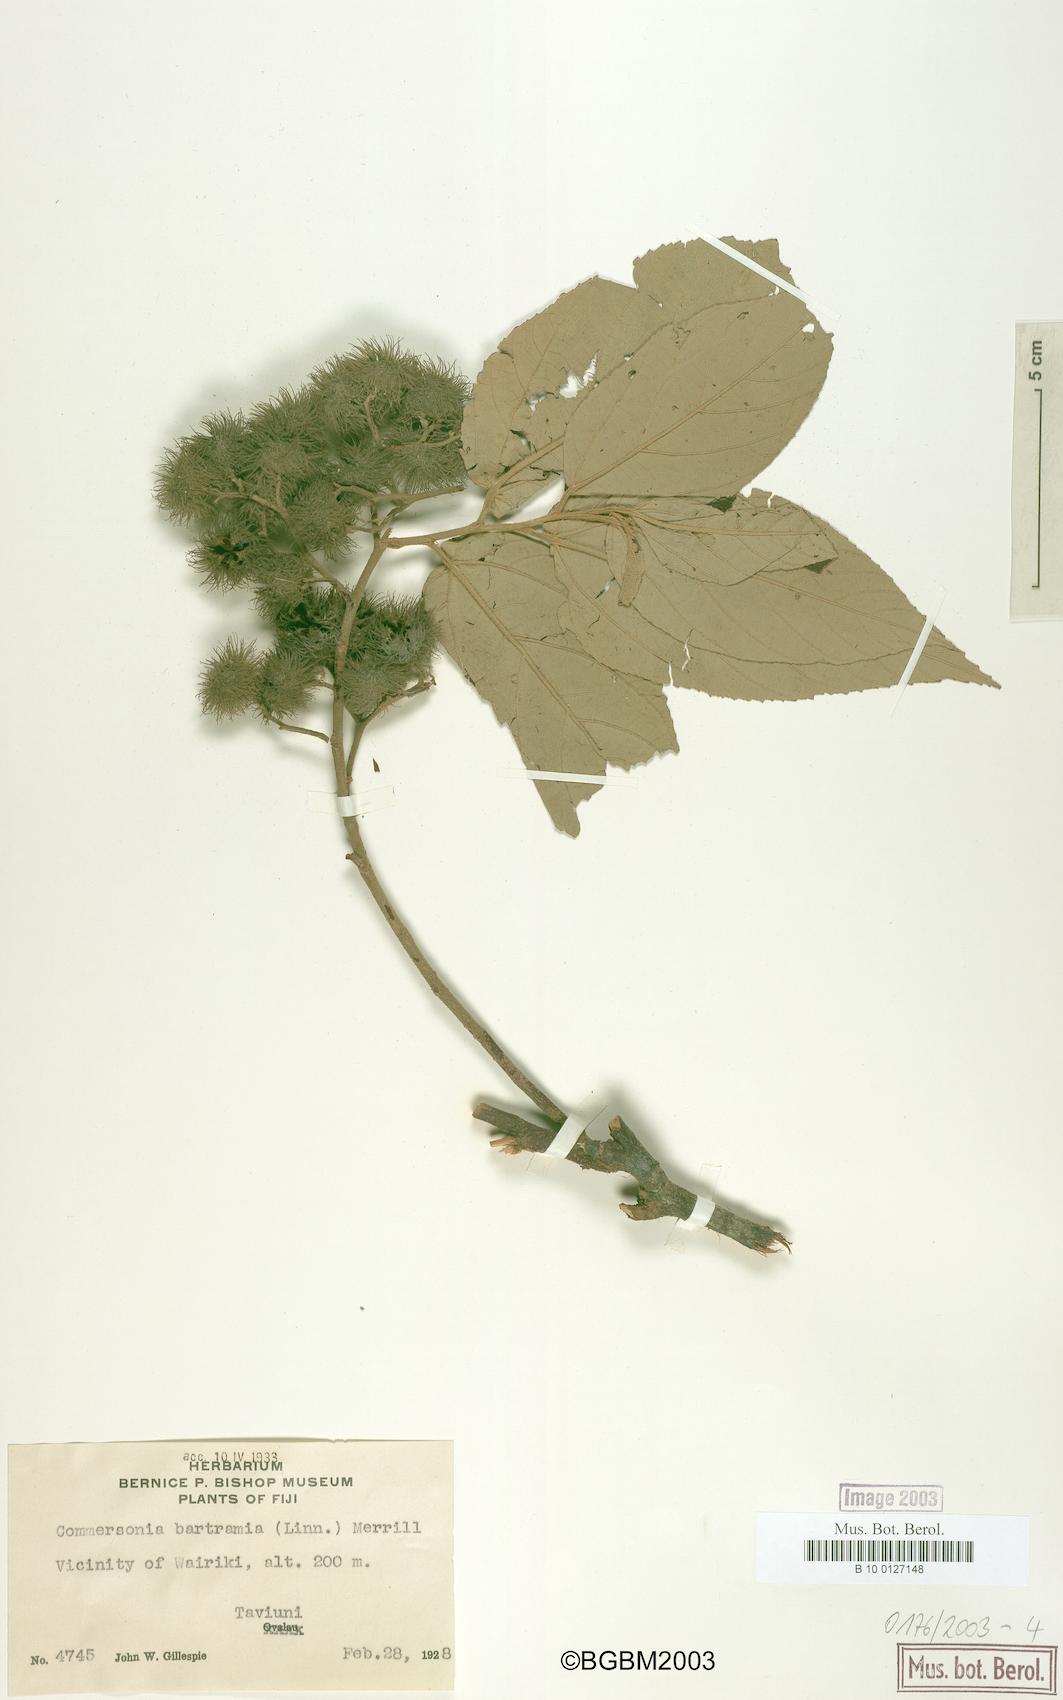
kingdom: Plantae
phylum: Tracheophyta
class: Magnoliopsida
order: Malvales
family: Malvaceae
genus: Commersonia
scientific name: Commersonia bartramia
